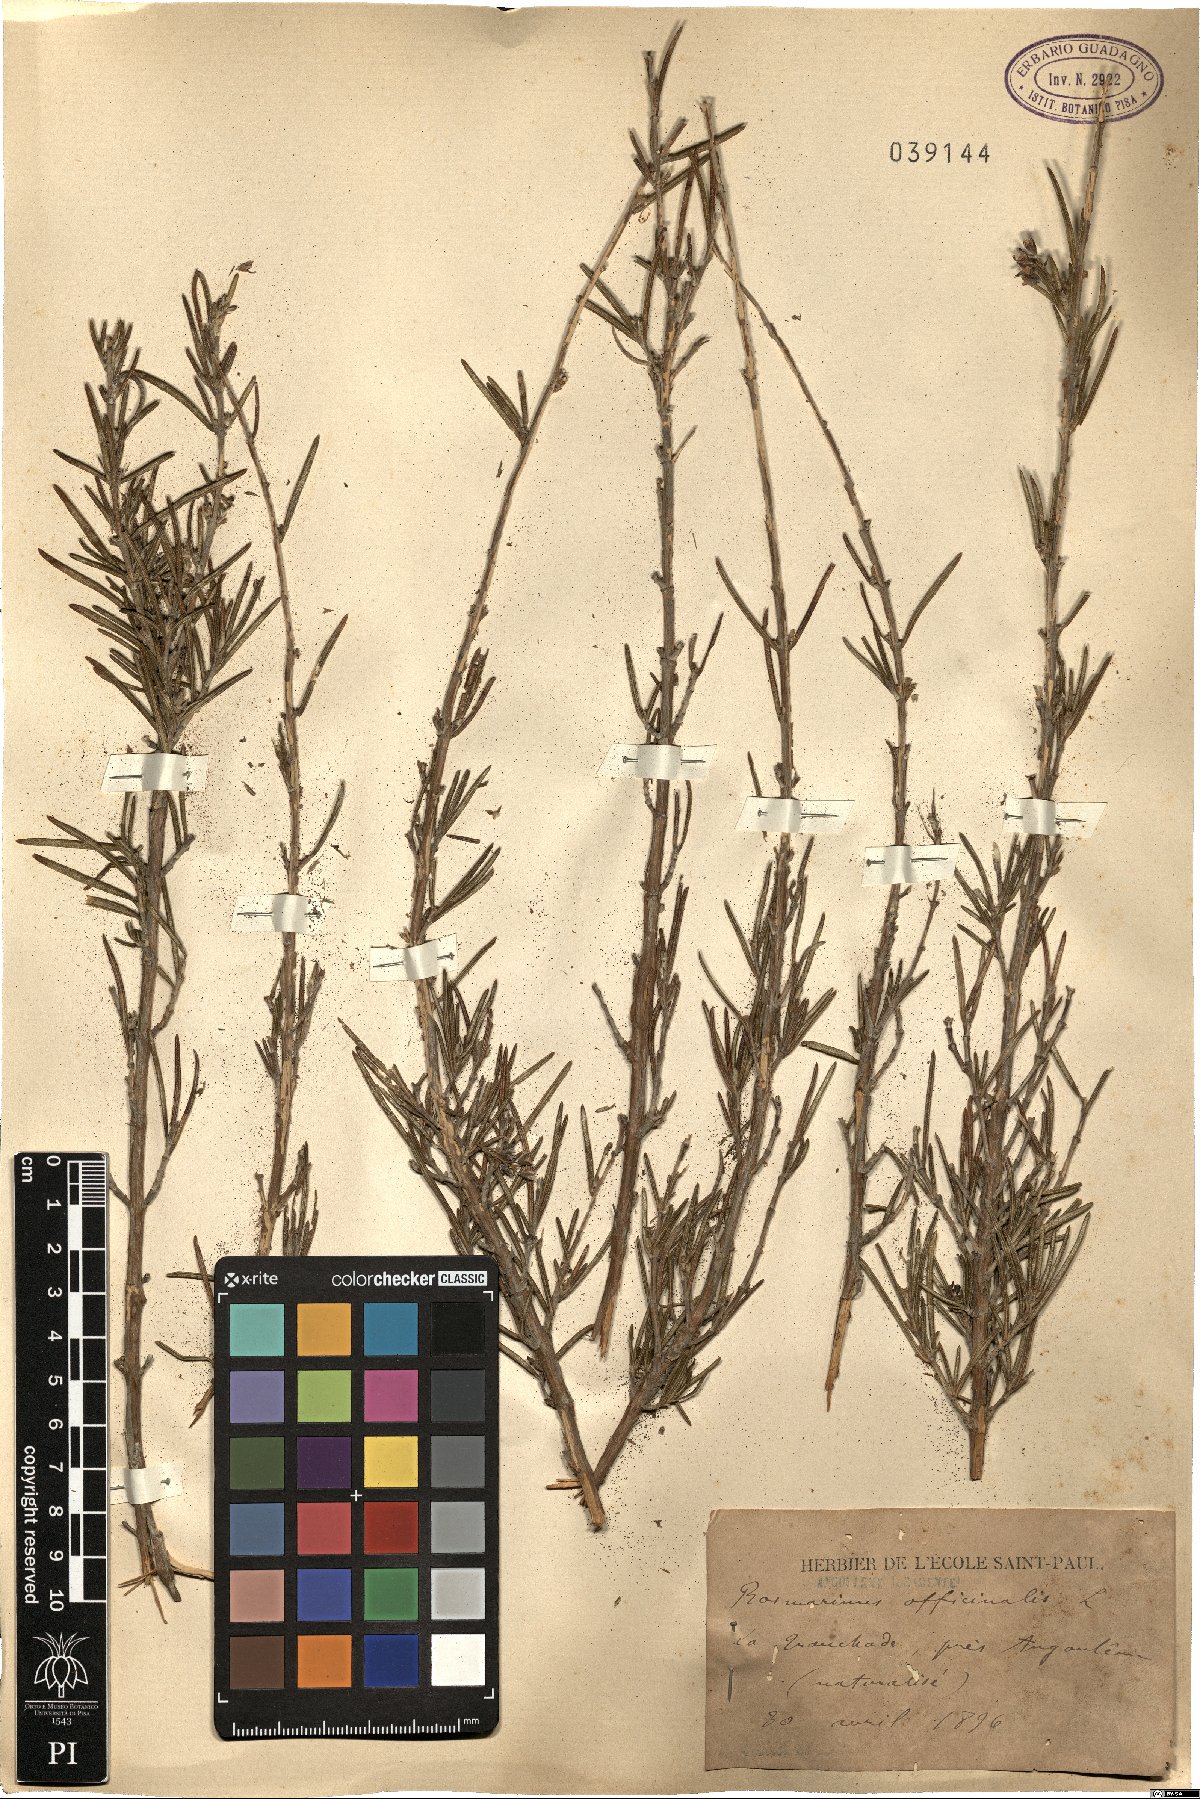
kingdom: Plantae
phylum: Tracheophyta
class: Magnoliopsida
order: Lamiales
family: Lamiaceae
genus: Salvia
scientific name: Salvia rosmarinus
